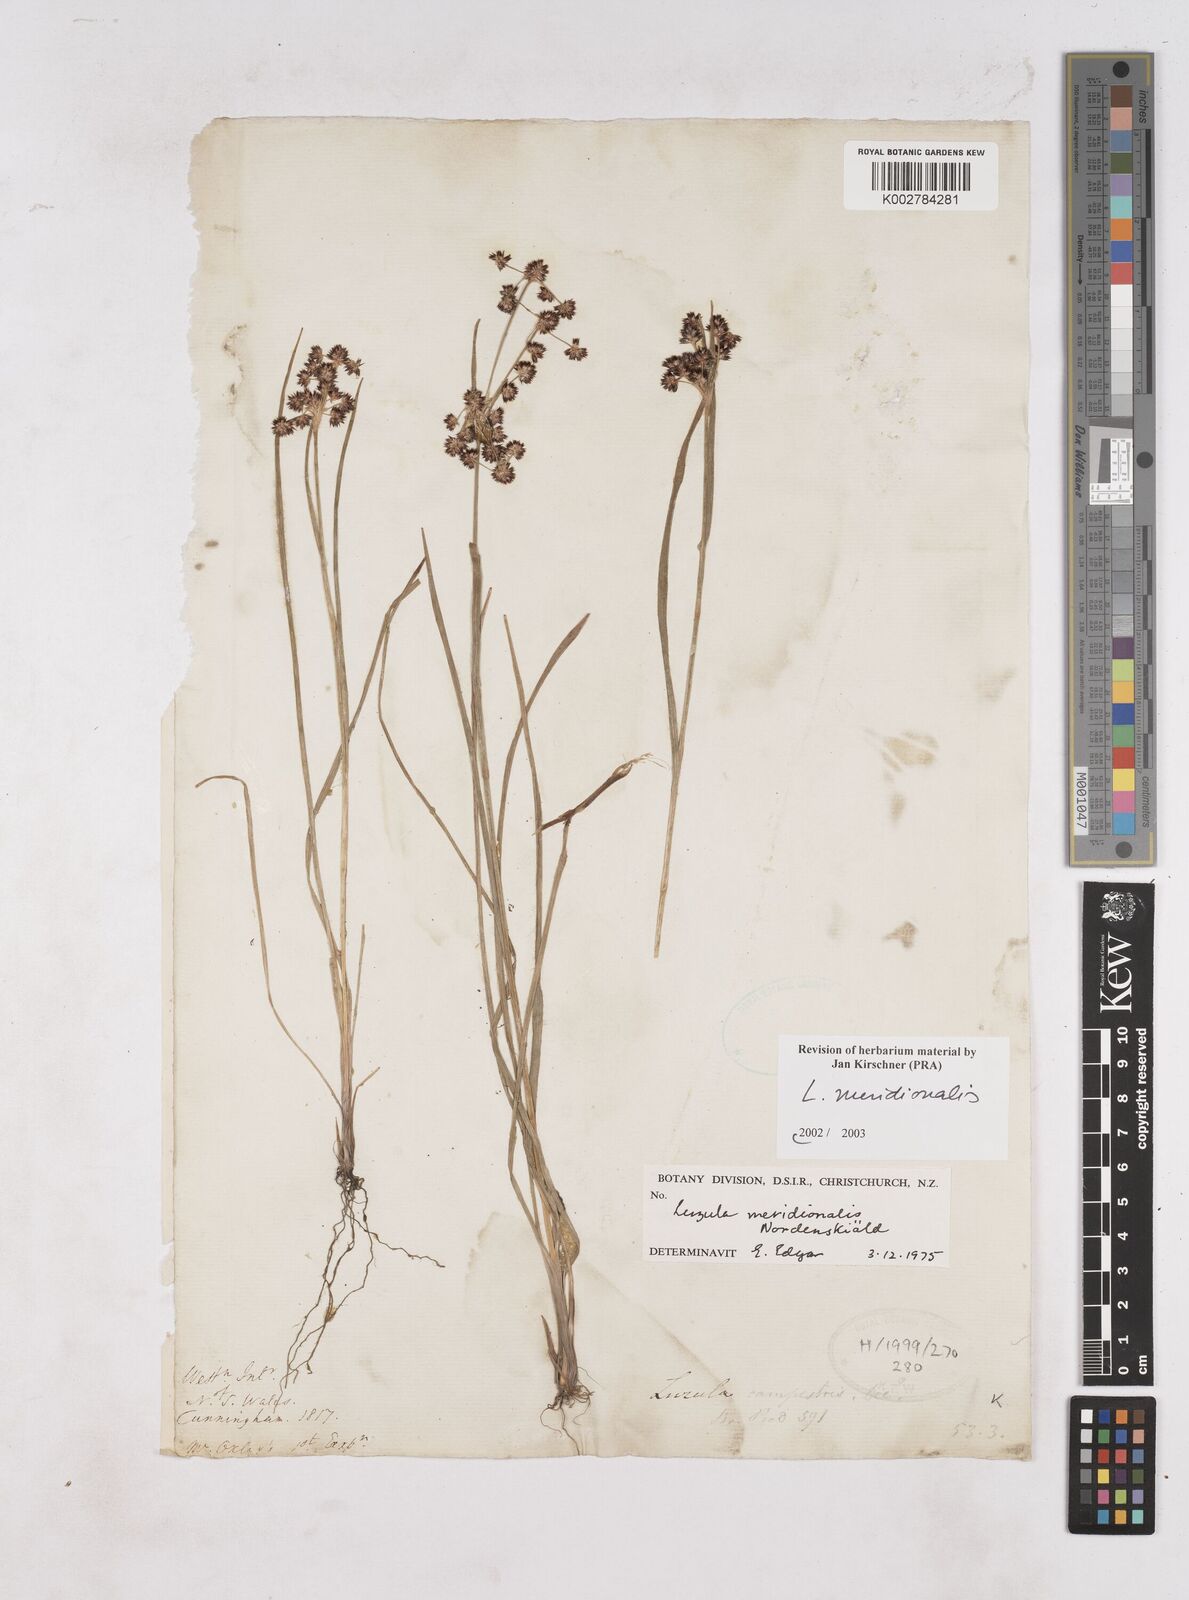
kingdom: Plantae
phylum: Tracheophyta
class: Liliopsida
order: Poales
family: Juncaceae
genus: Luzula
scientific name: Luzula meridionalis
